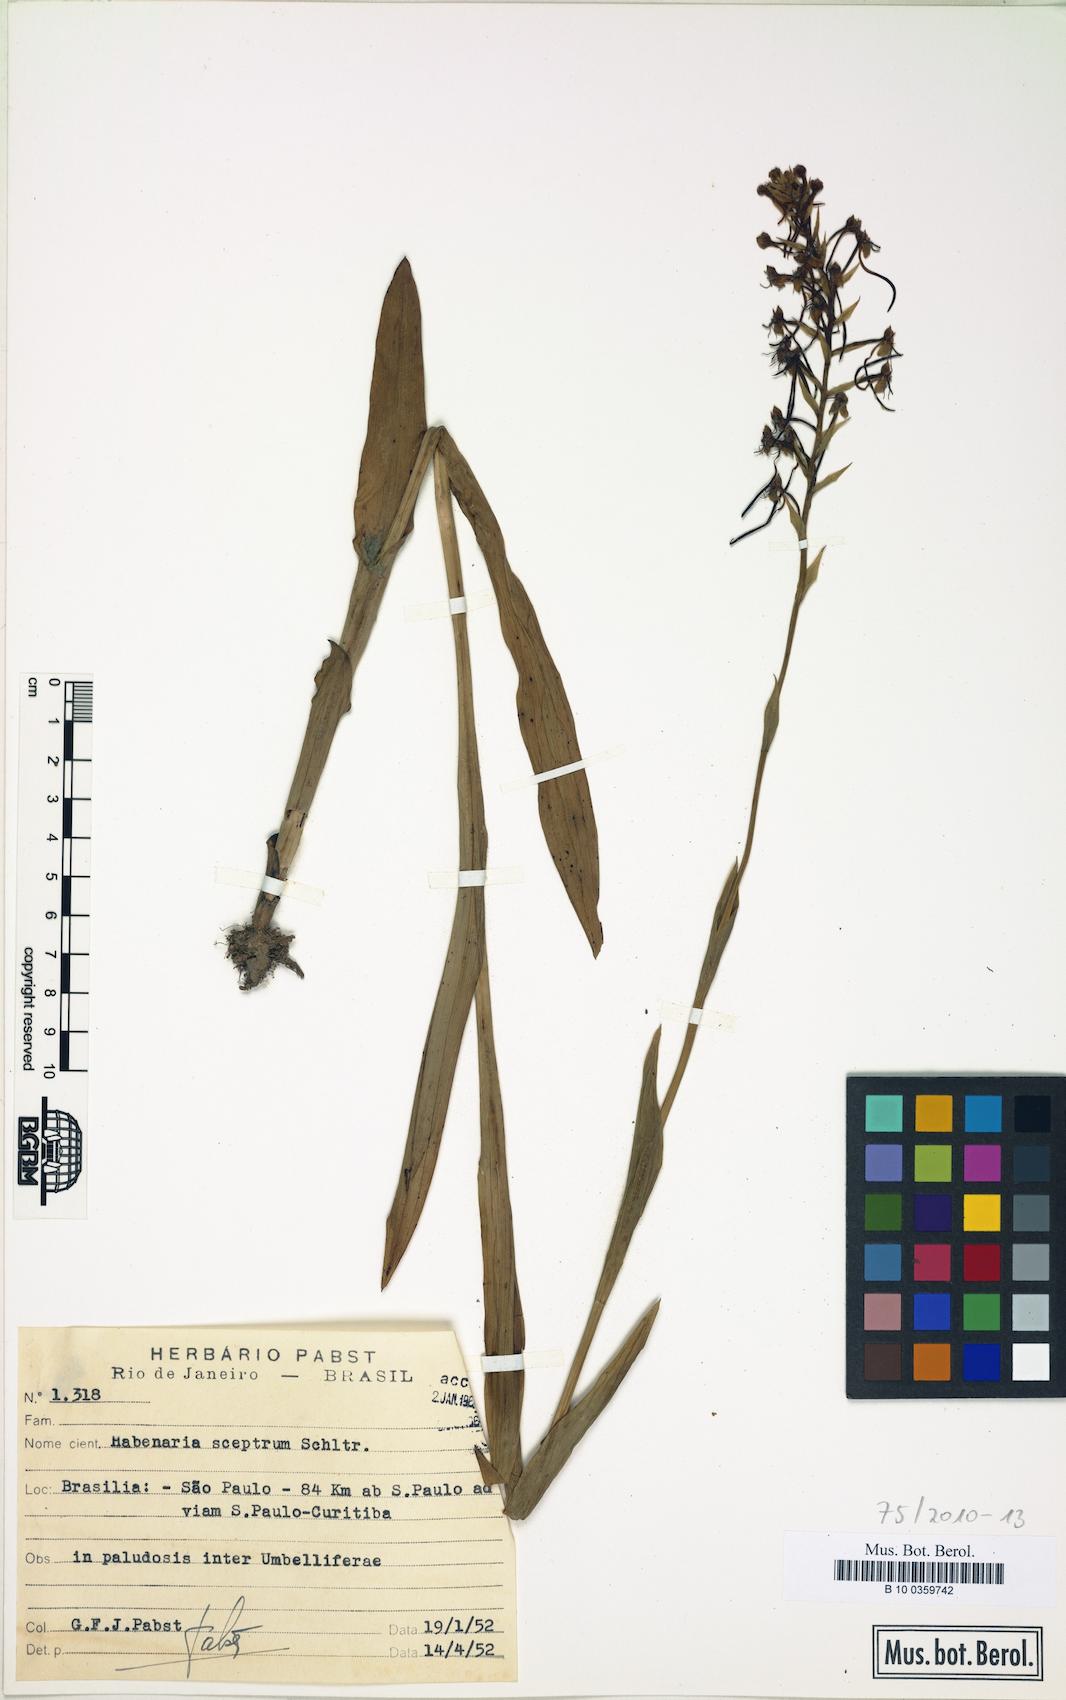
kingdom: Plantae
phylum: Tracheophyta
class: Liliopsida
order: Asparagales
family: Orchidaceae
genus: Habenaria
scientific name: Habenaria exaltata
